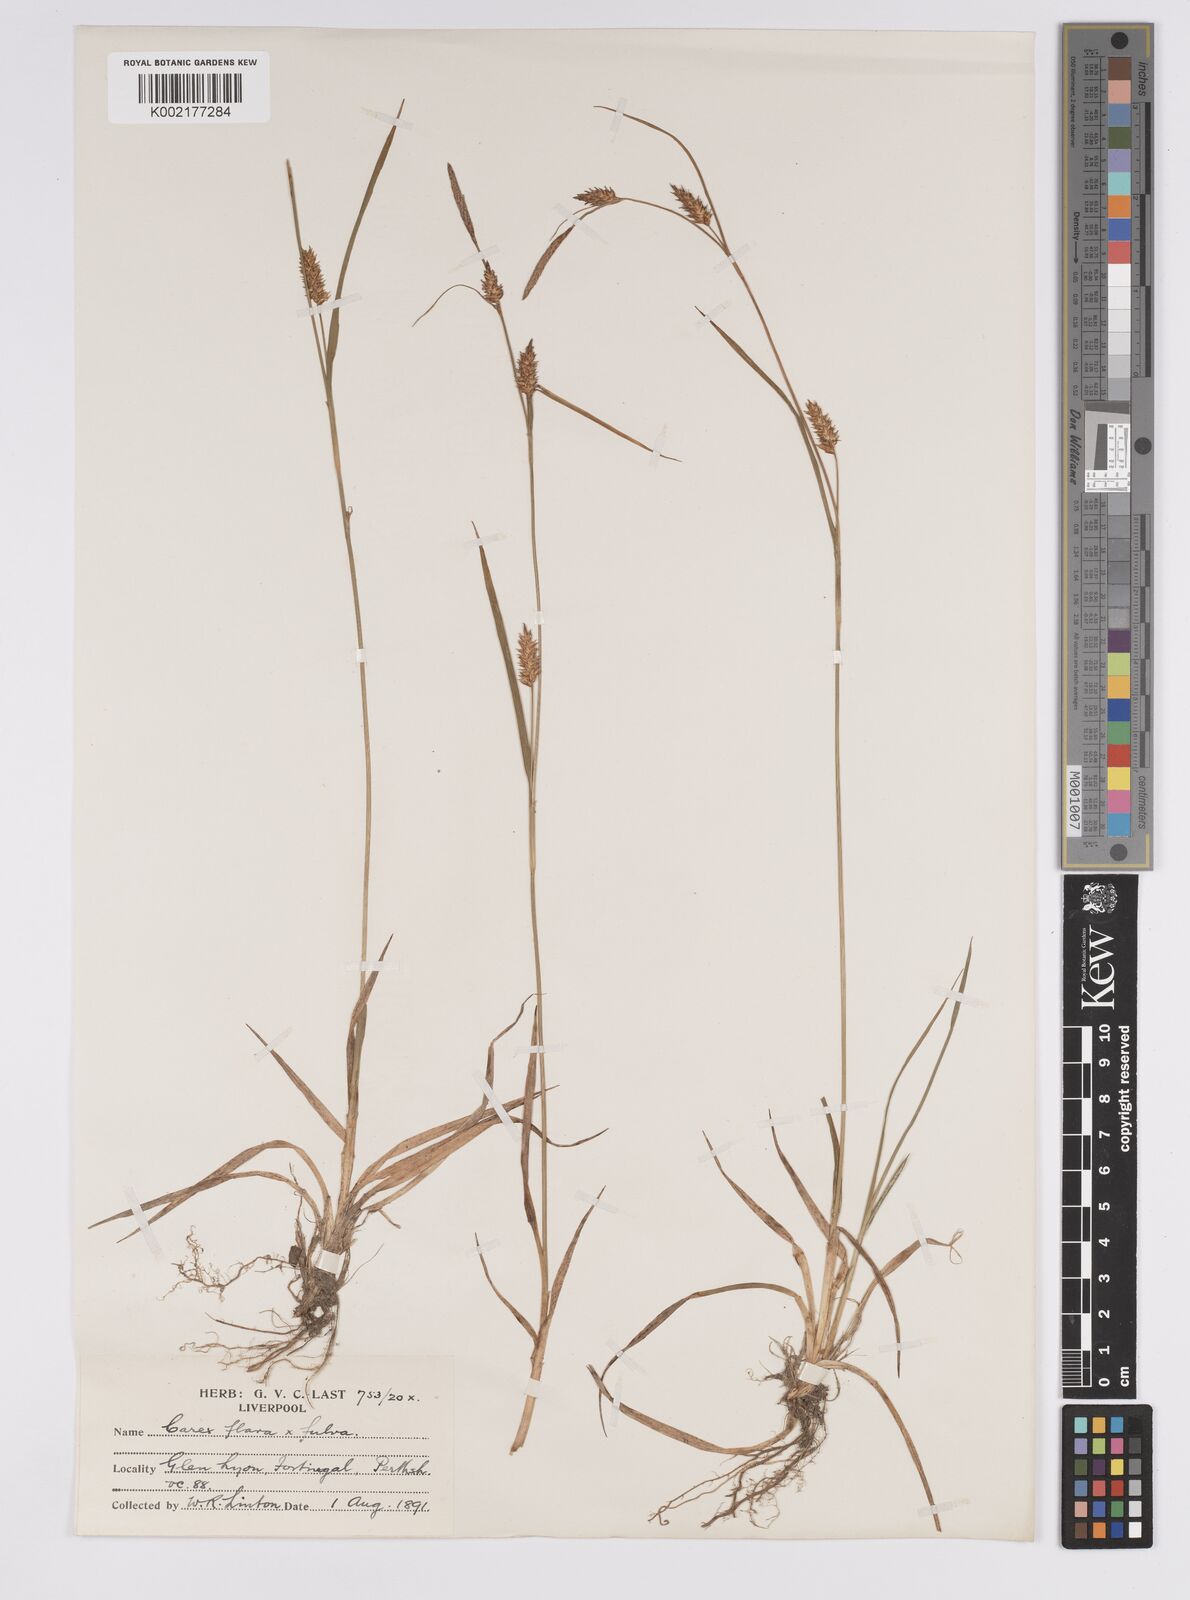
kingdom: Plantae
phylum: Tracheophyta
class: Liliopsida
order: Poales
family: Cyperaceae
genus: Carex
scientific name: Carex hostiana
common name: Tawny sedge
